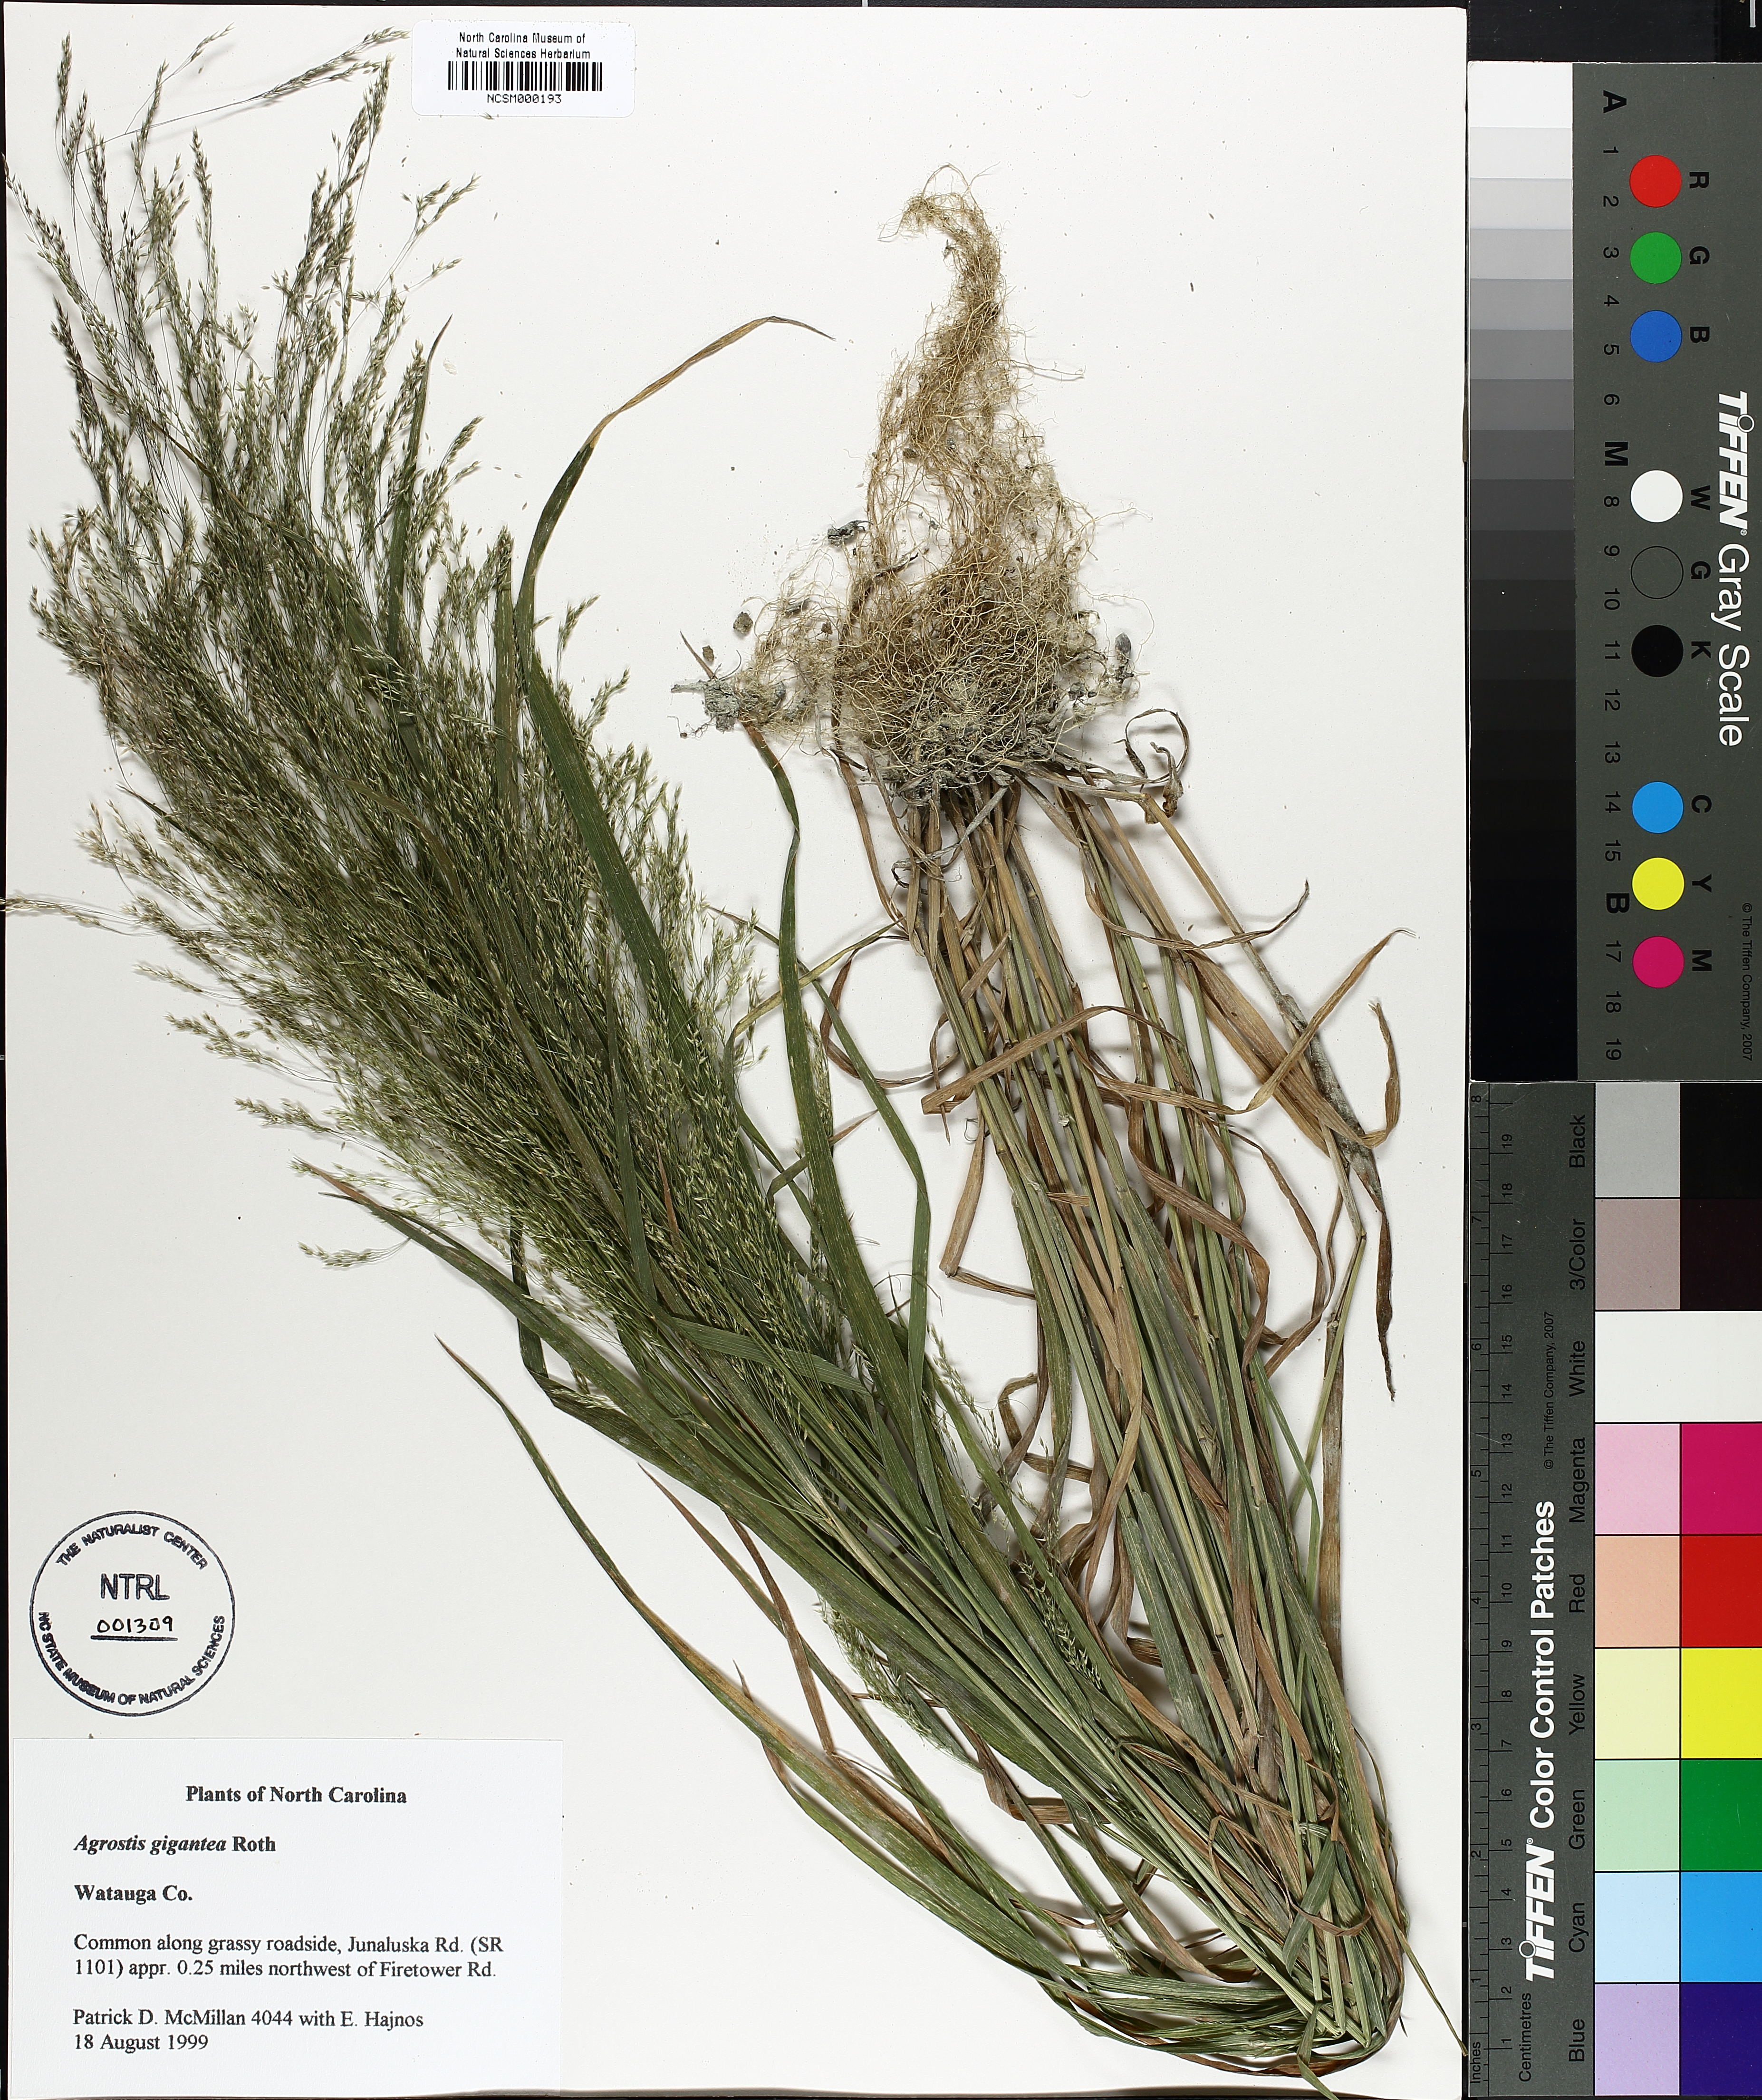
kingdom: Plantae
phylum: Tracheophyta
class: Liliopsida
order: Poales
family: Poaceae
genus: Agrostis
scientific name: Agrostis gigantea
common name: Black bent
